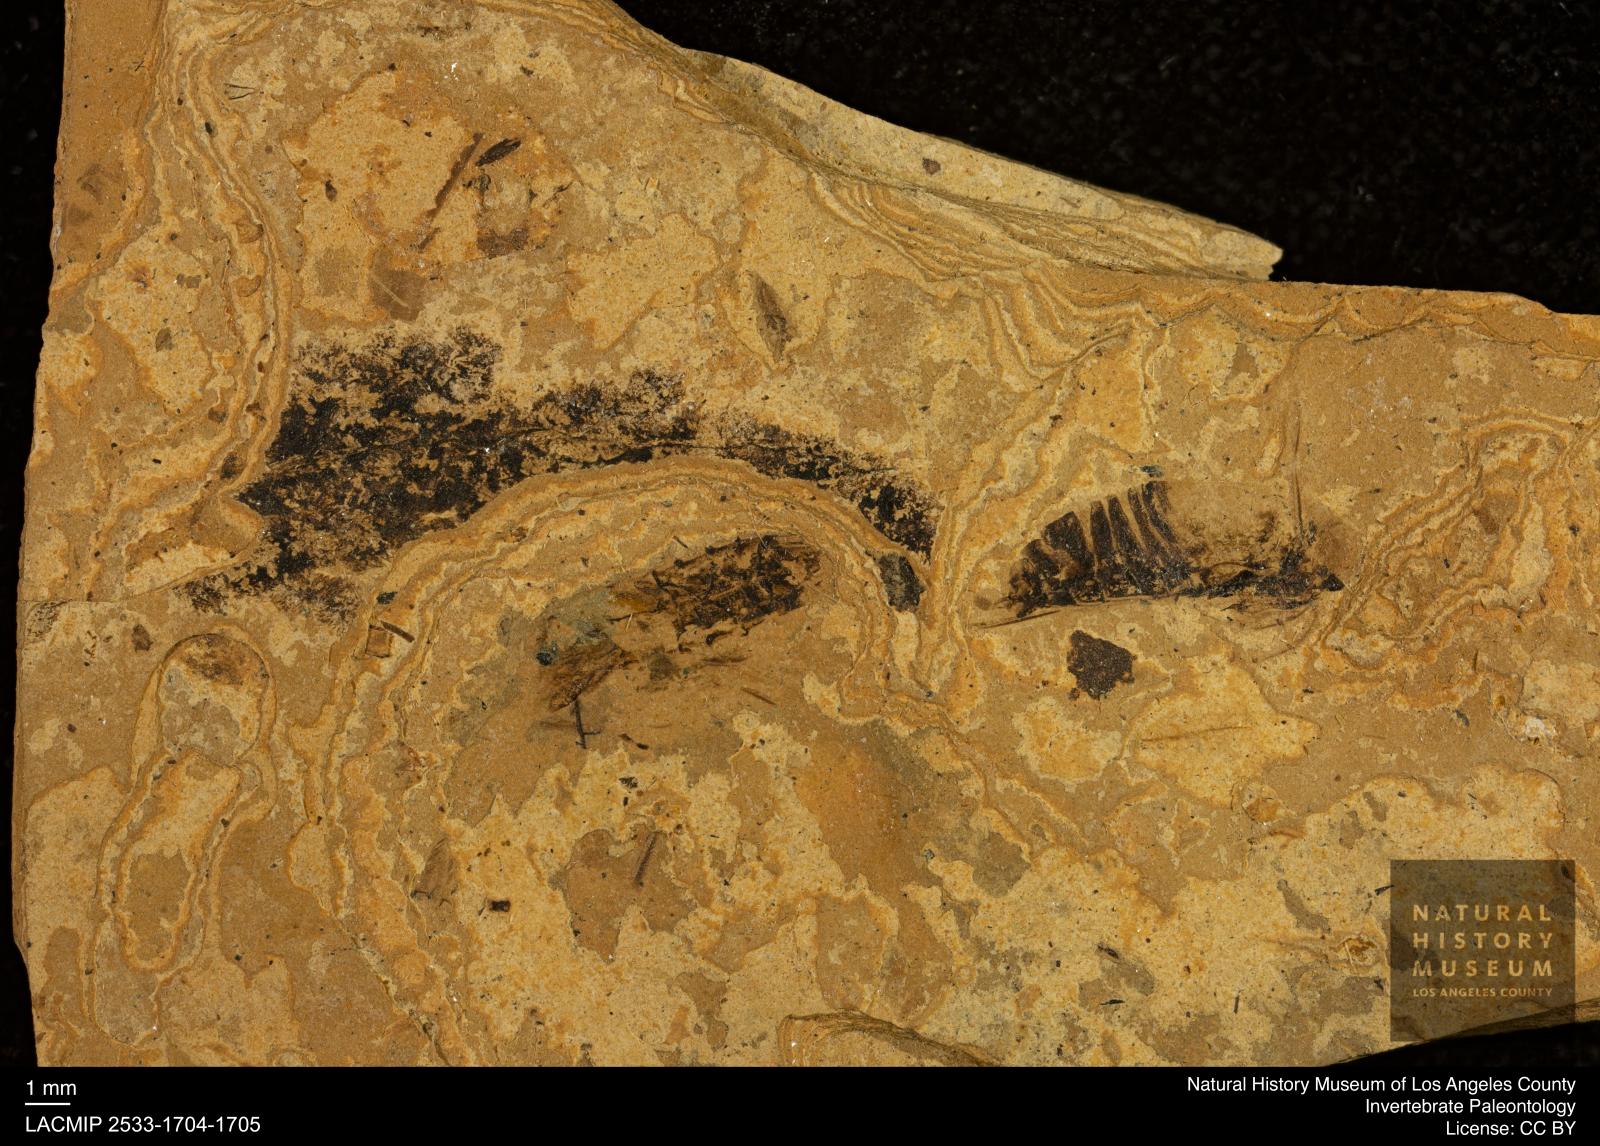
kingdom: Animalia
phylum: Arthropoda
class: Insecta
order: Diptera
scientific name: Diptera
